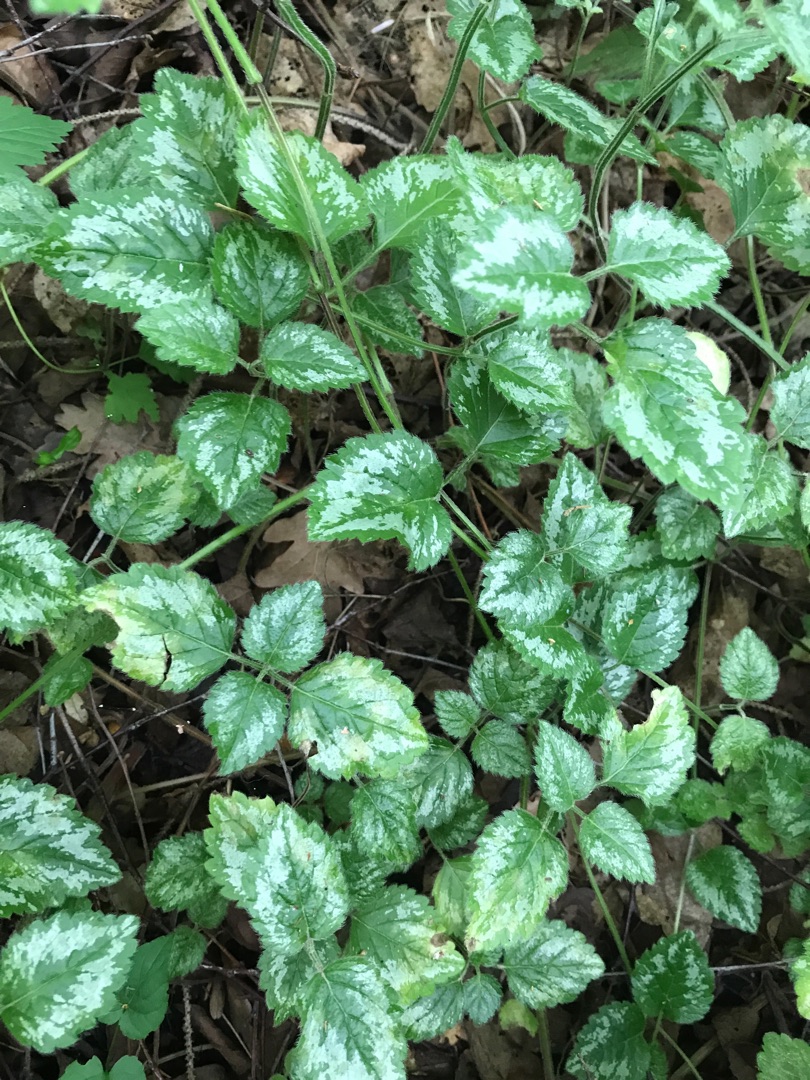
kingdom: Plantae
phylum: Tracheophyta
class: Magnoliopsida
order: Lamiales
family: Lamiaceae
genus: Lamium
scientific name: Lamium galeobdolon
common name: Have-guldnælde
